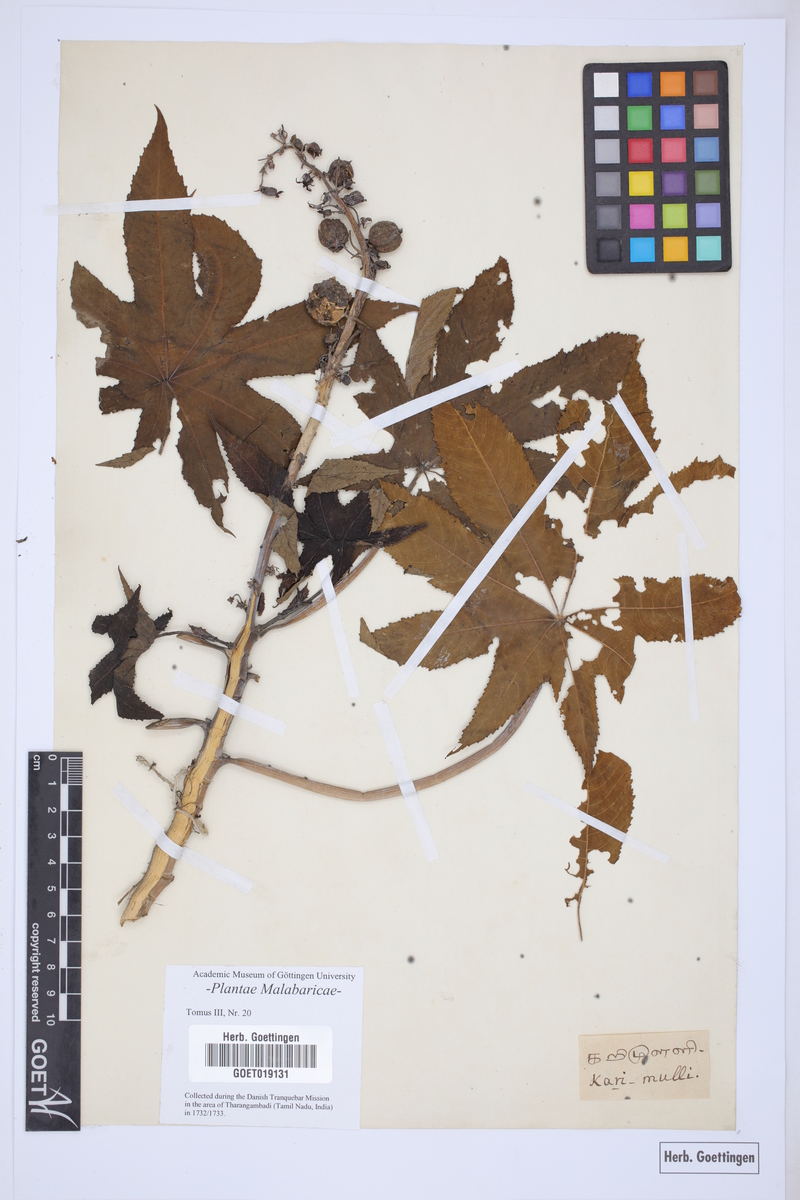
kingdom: Plantae
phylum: Tracheophyta
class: Magnoliopsida
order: Malpighiales
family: Euphorbiaceae
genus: Ricinus
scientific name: Ricinus communis
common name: Castor-oil-plant
